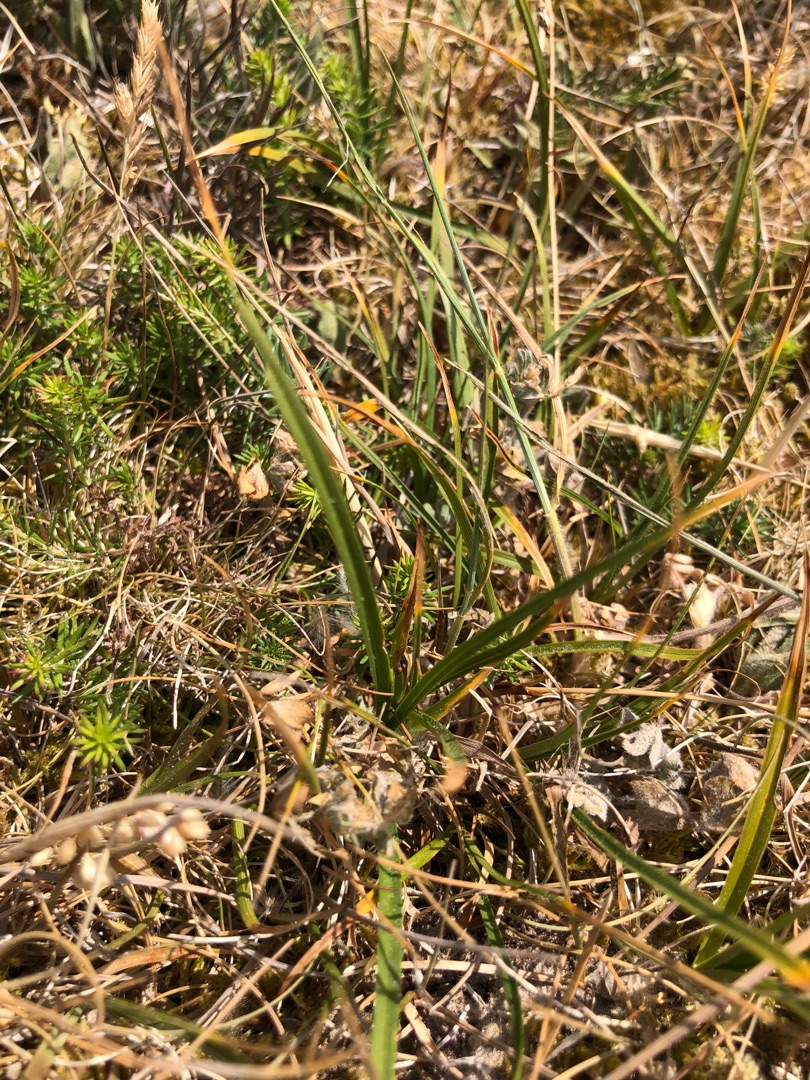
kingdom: Plantae
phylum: Tracheophyta
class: Liliopsida
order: Poales
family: Cyperaceae
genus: Carex
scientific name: Carex ericetorum
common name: Lyng-star
